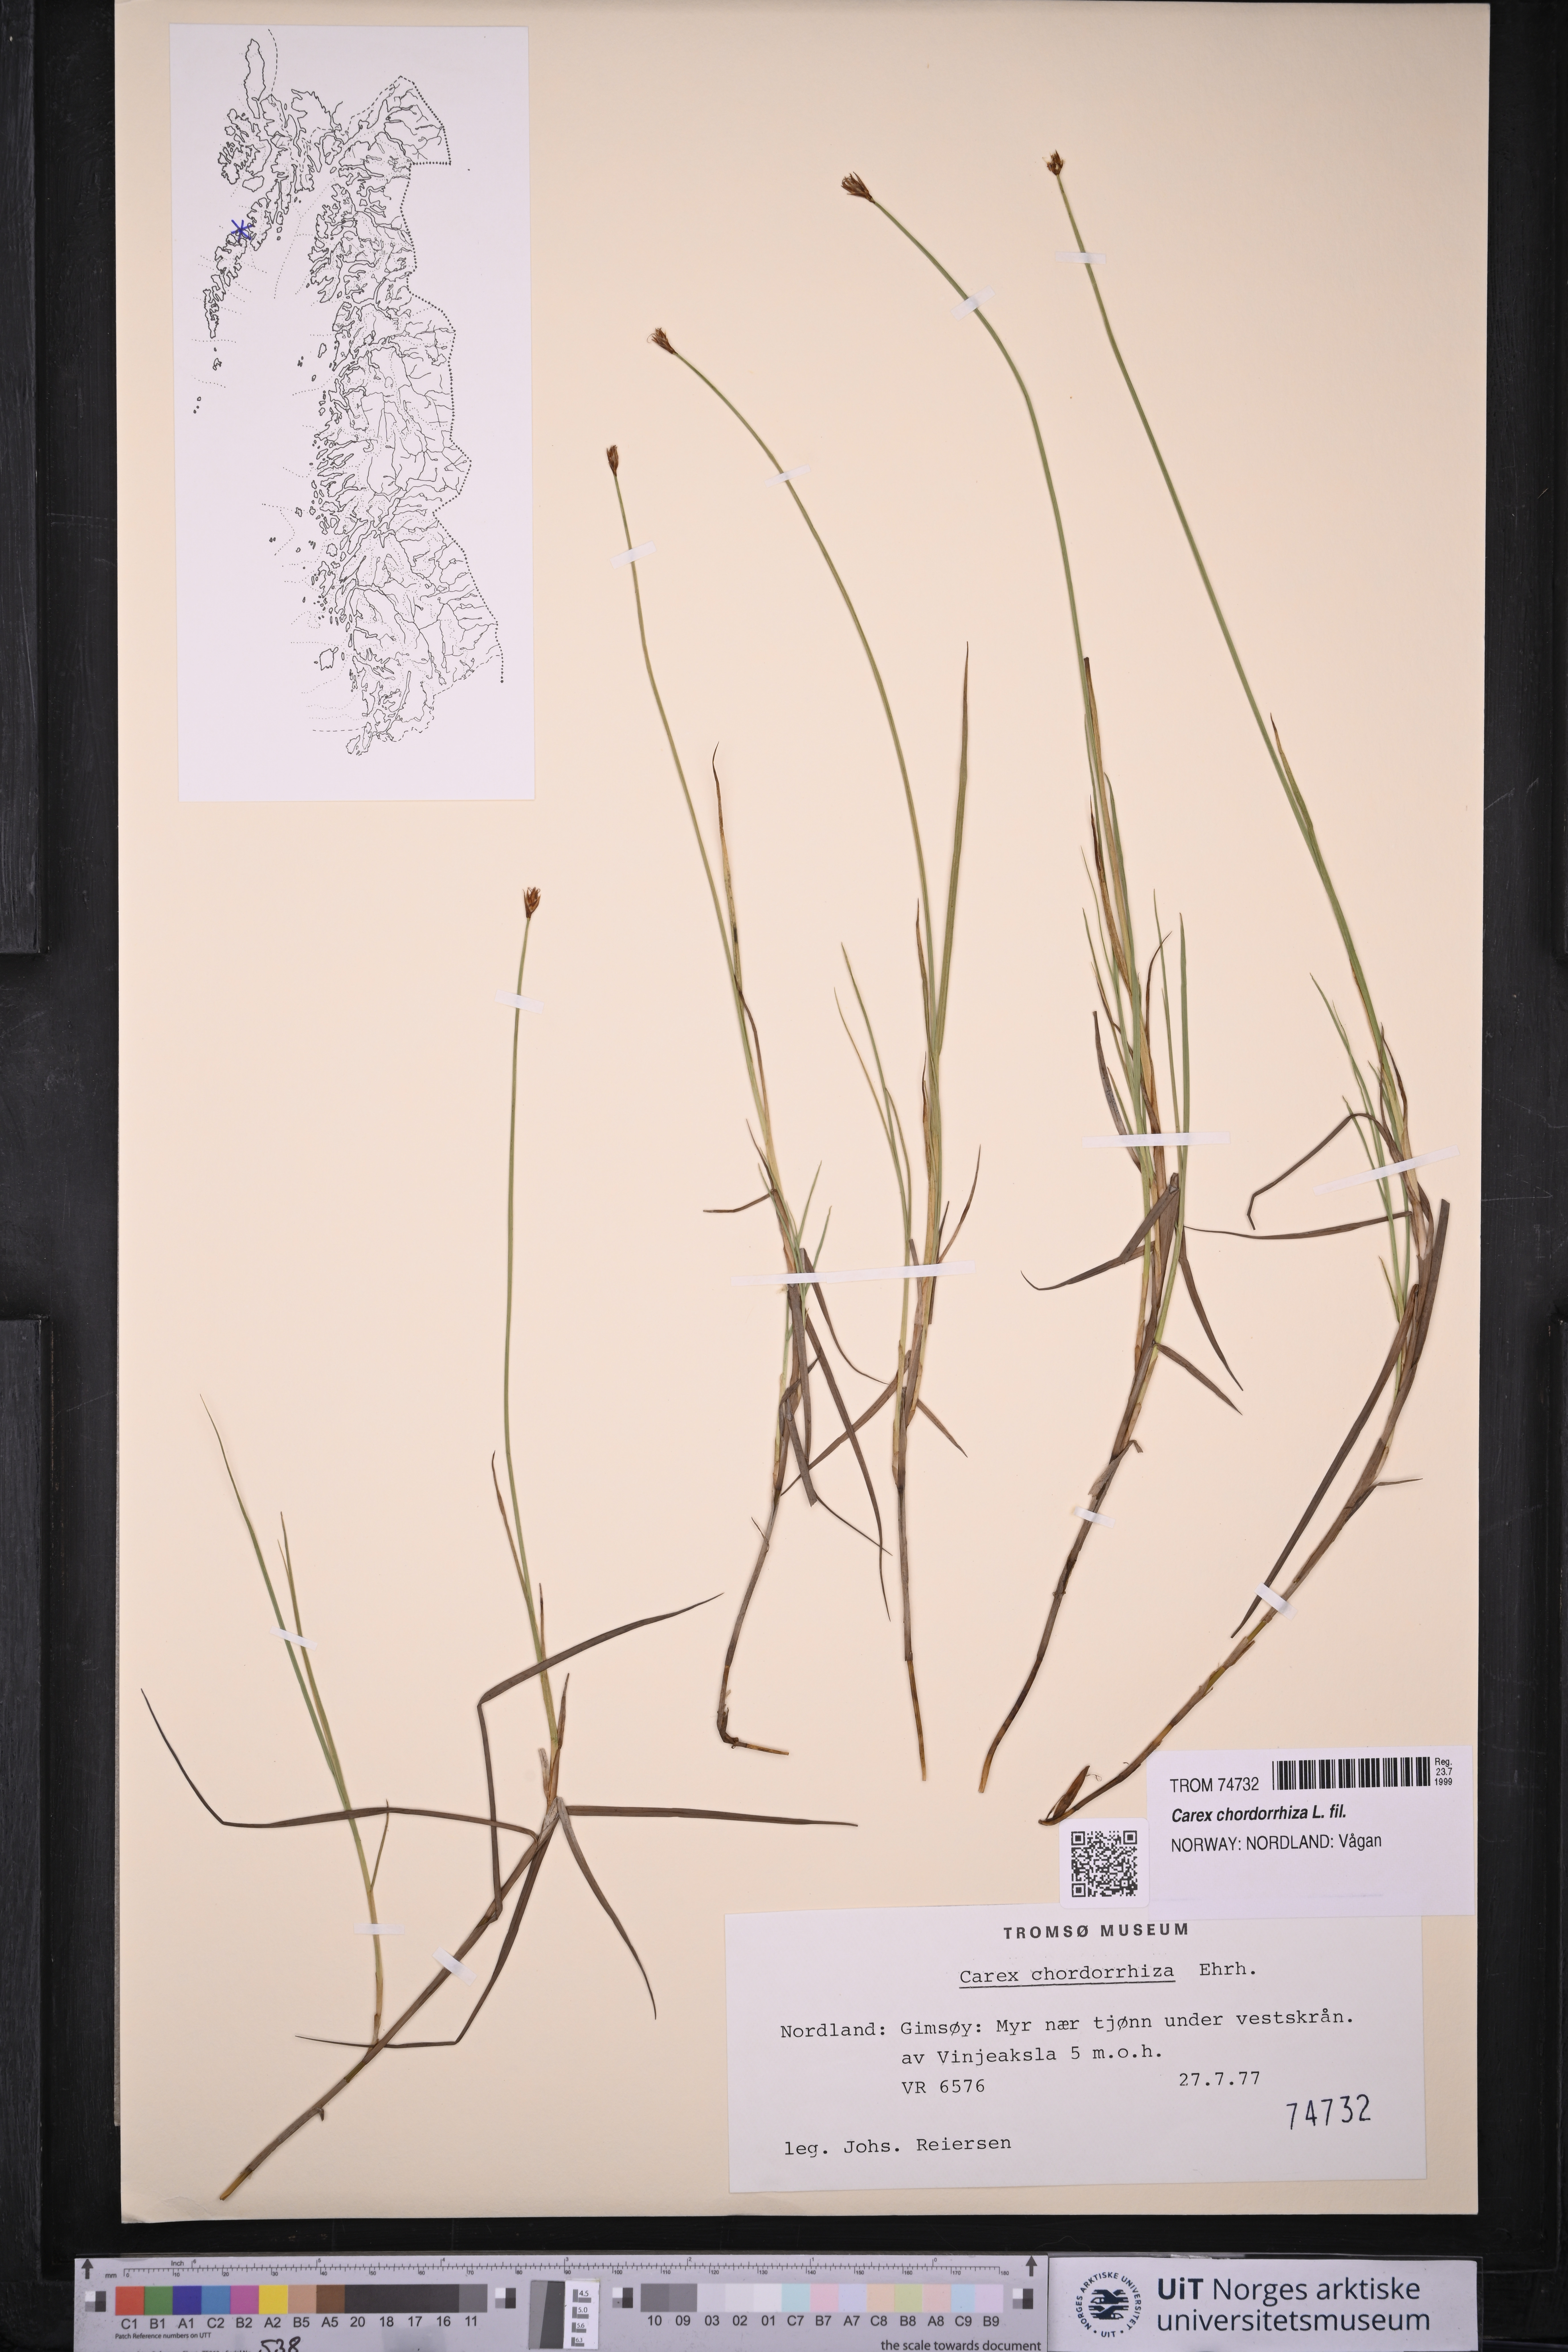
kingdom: Plantae
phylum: Tracheophyta
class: Liliopsida
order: Poales
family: Cyperaceae
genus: Carex
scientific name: Carex chordorrhiza
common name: String sedge
